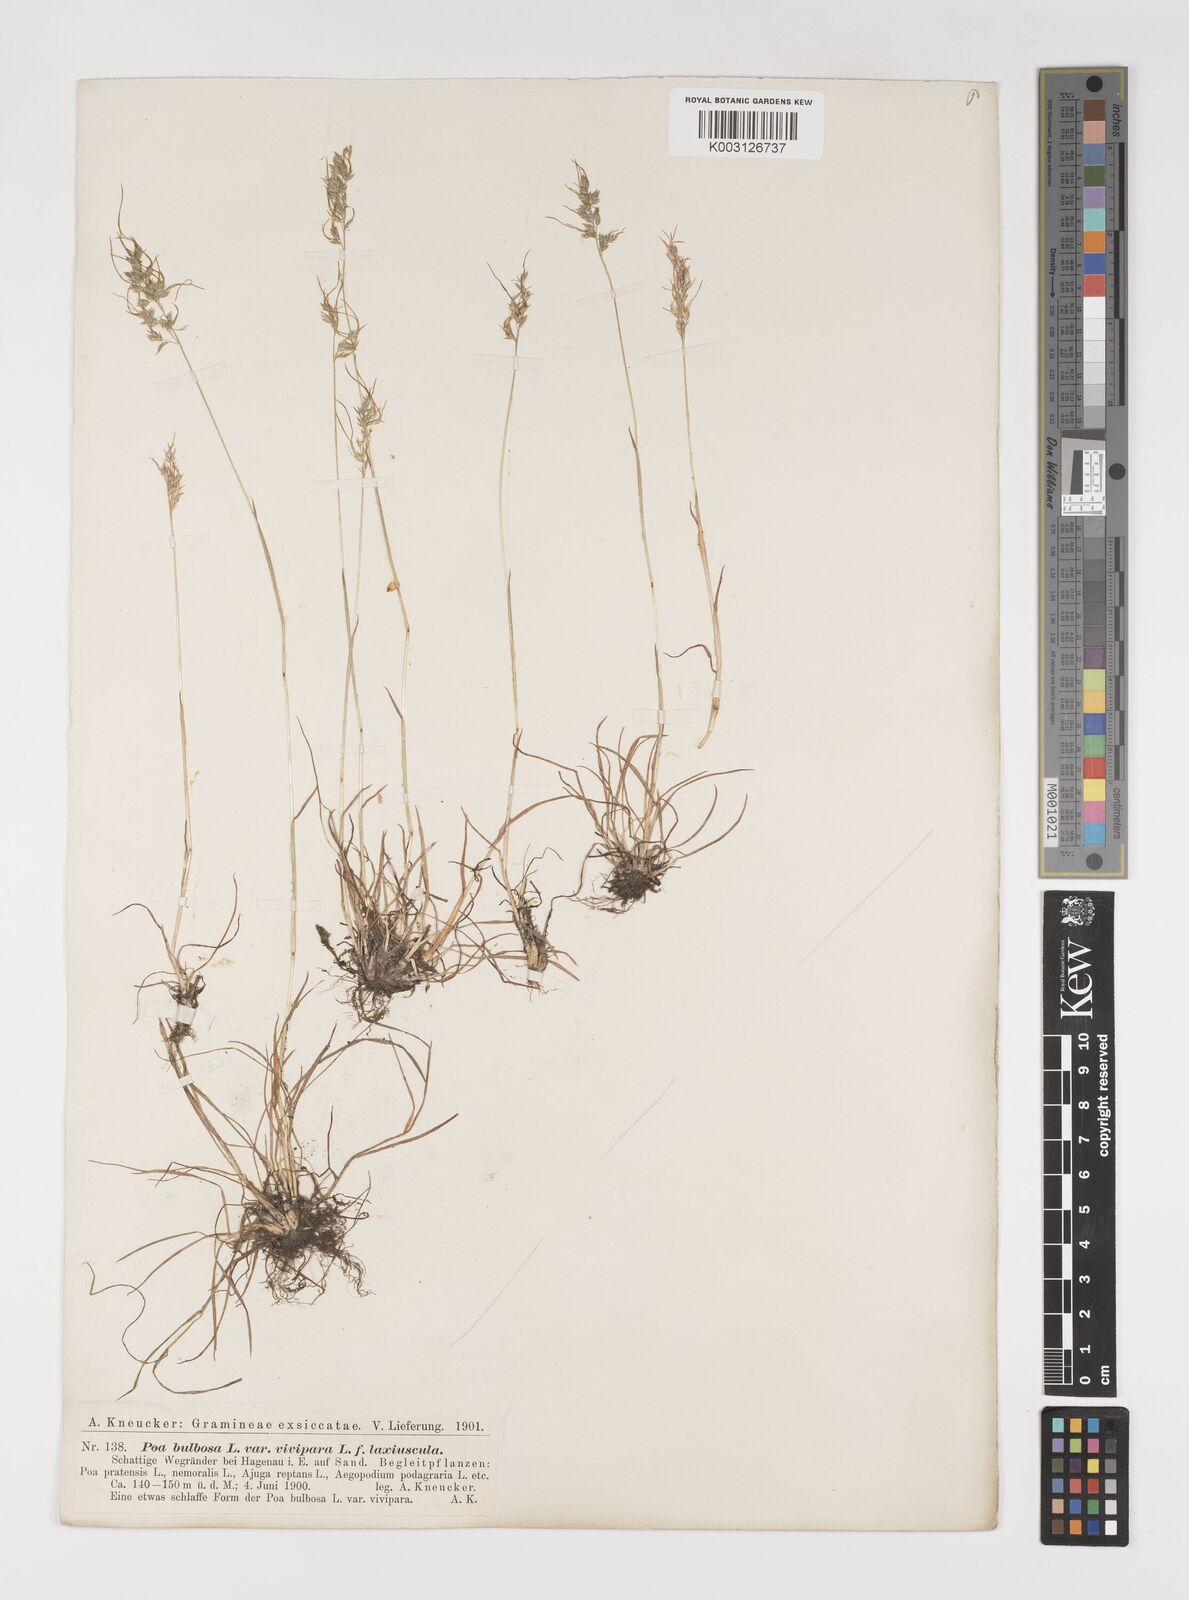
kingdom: Plantae
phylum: Tracheophyta
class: Liliopsida
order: Poales
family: Poaceae
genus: Poa
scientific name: Poa bulbosa
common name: Bulbous bluegrass
